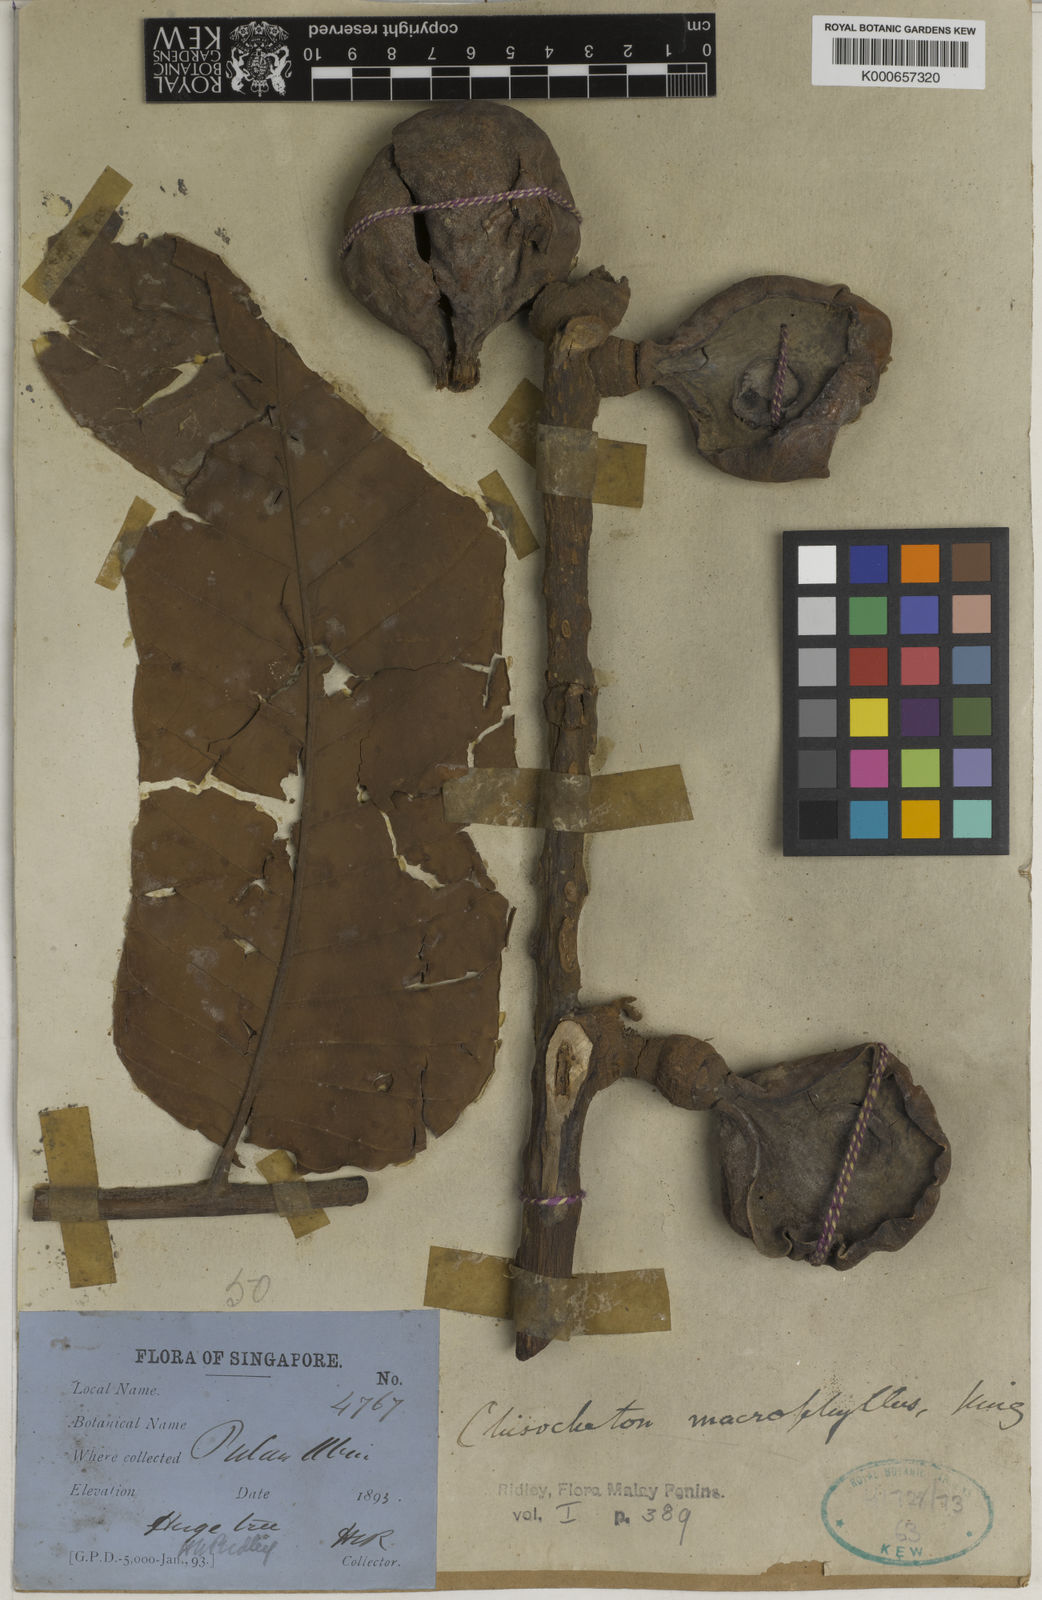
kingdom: Plantae
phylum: Tracheophyta
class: Magnoliopsida
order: Sapindales
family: Meliaceae
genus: Chisocheton
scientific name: Chisocheton macrophyllus
